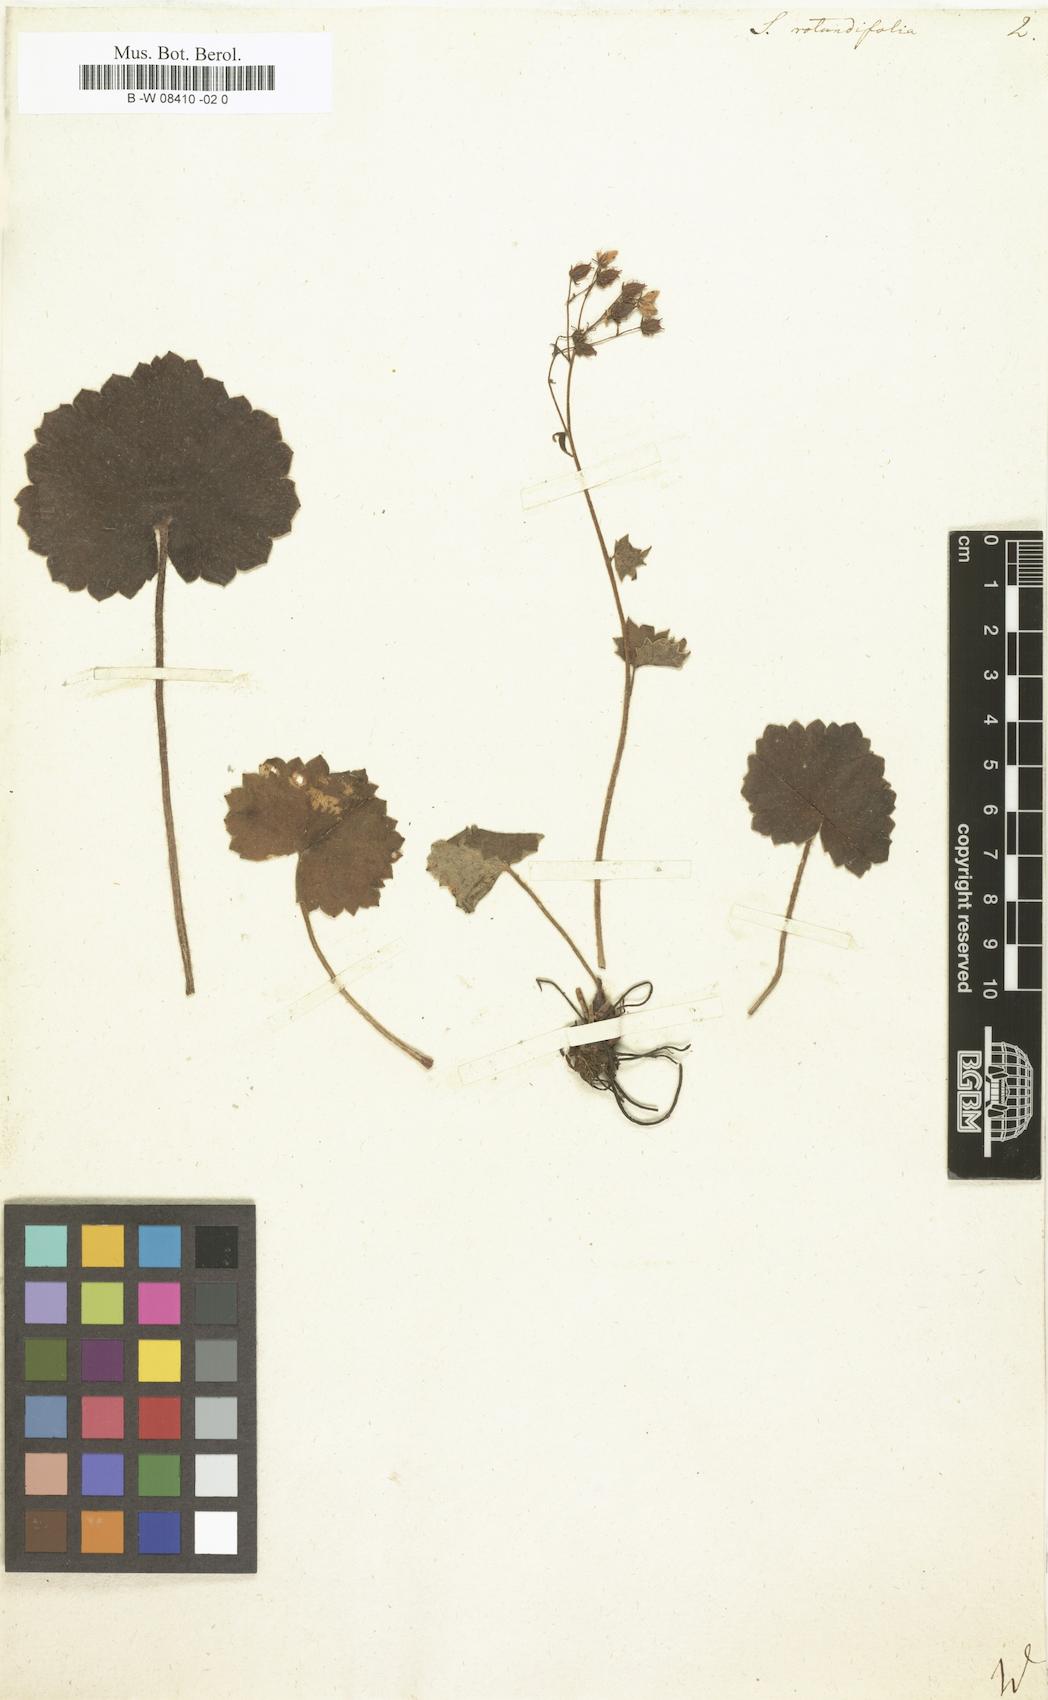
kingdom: Plantae
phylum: Tracheophyta
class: Magnoliopsida
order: Saxifragales
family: Saxifragaceae
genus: Saxifraga
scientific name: Saxifraga rotundifolia
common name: Round-leaved saxifrage
